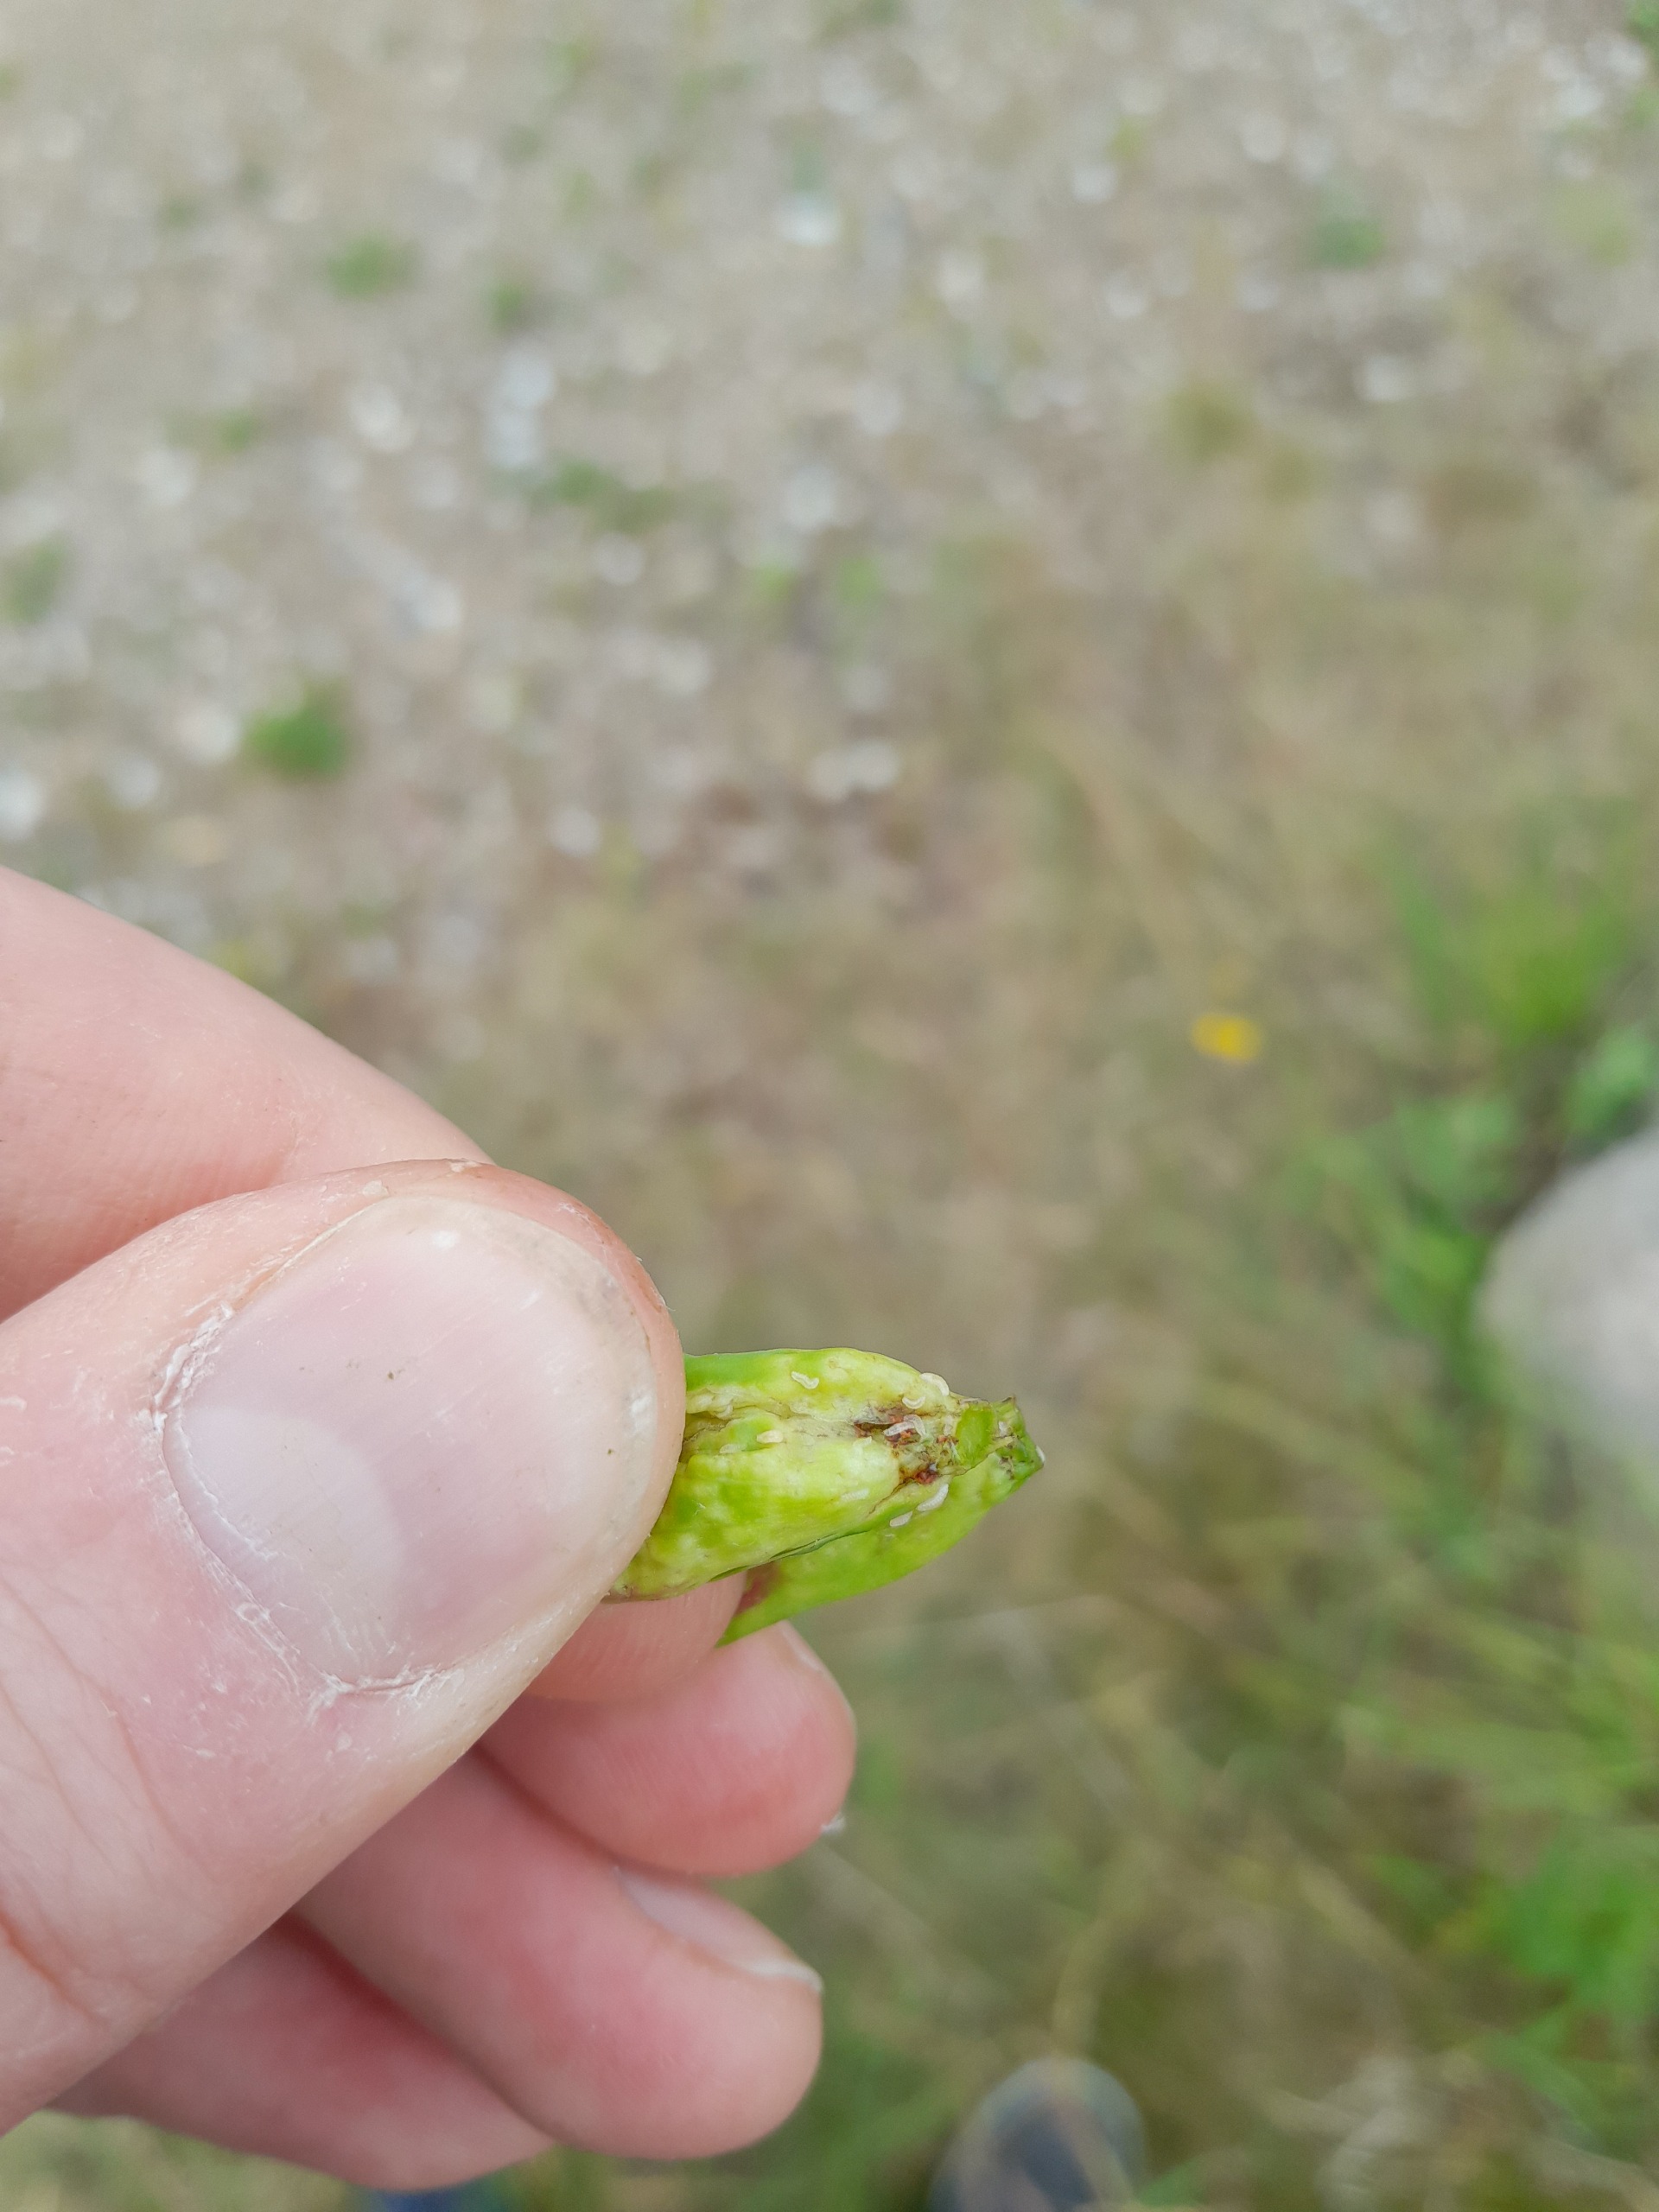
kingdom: Animalia
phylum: Arthropoda
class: Insecta
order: Diptera
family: Cecidomyiidae
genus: Contarinia
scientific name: Contarinia tragopogonis
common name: Gedeskæggalmyg
